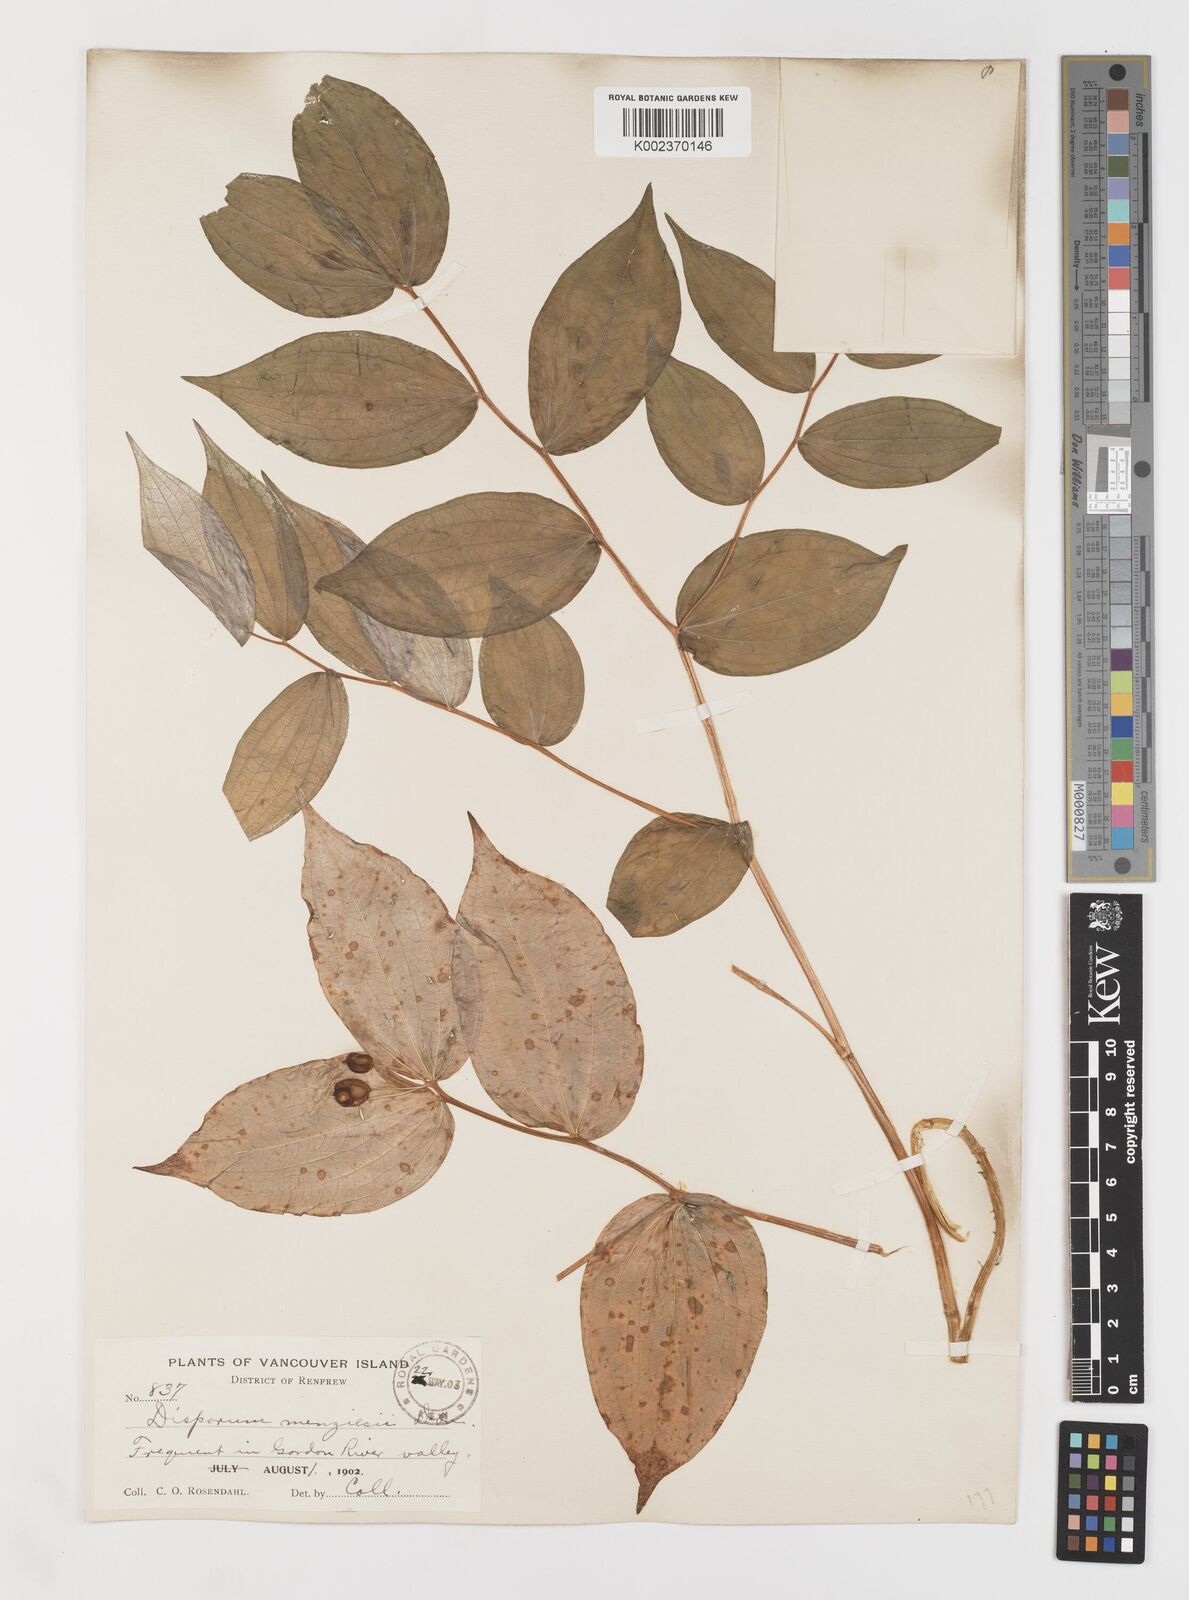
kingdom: Plantae
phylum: Tracheophyta
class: Liliopsida
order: Liliales
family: Liliaceae
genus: Prosartes
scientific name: Prosartes smithii
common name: Fairy-lantern
